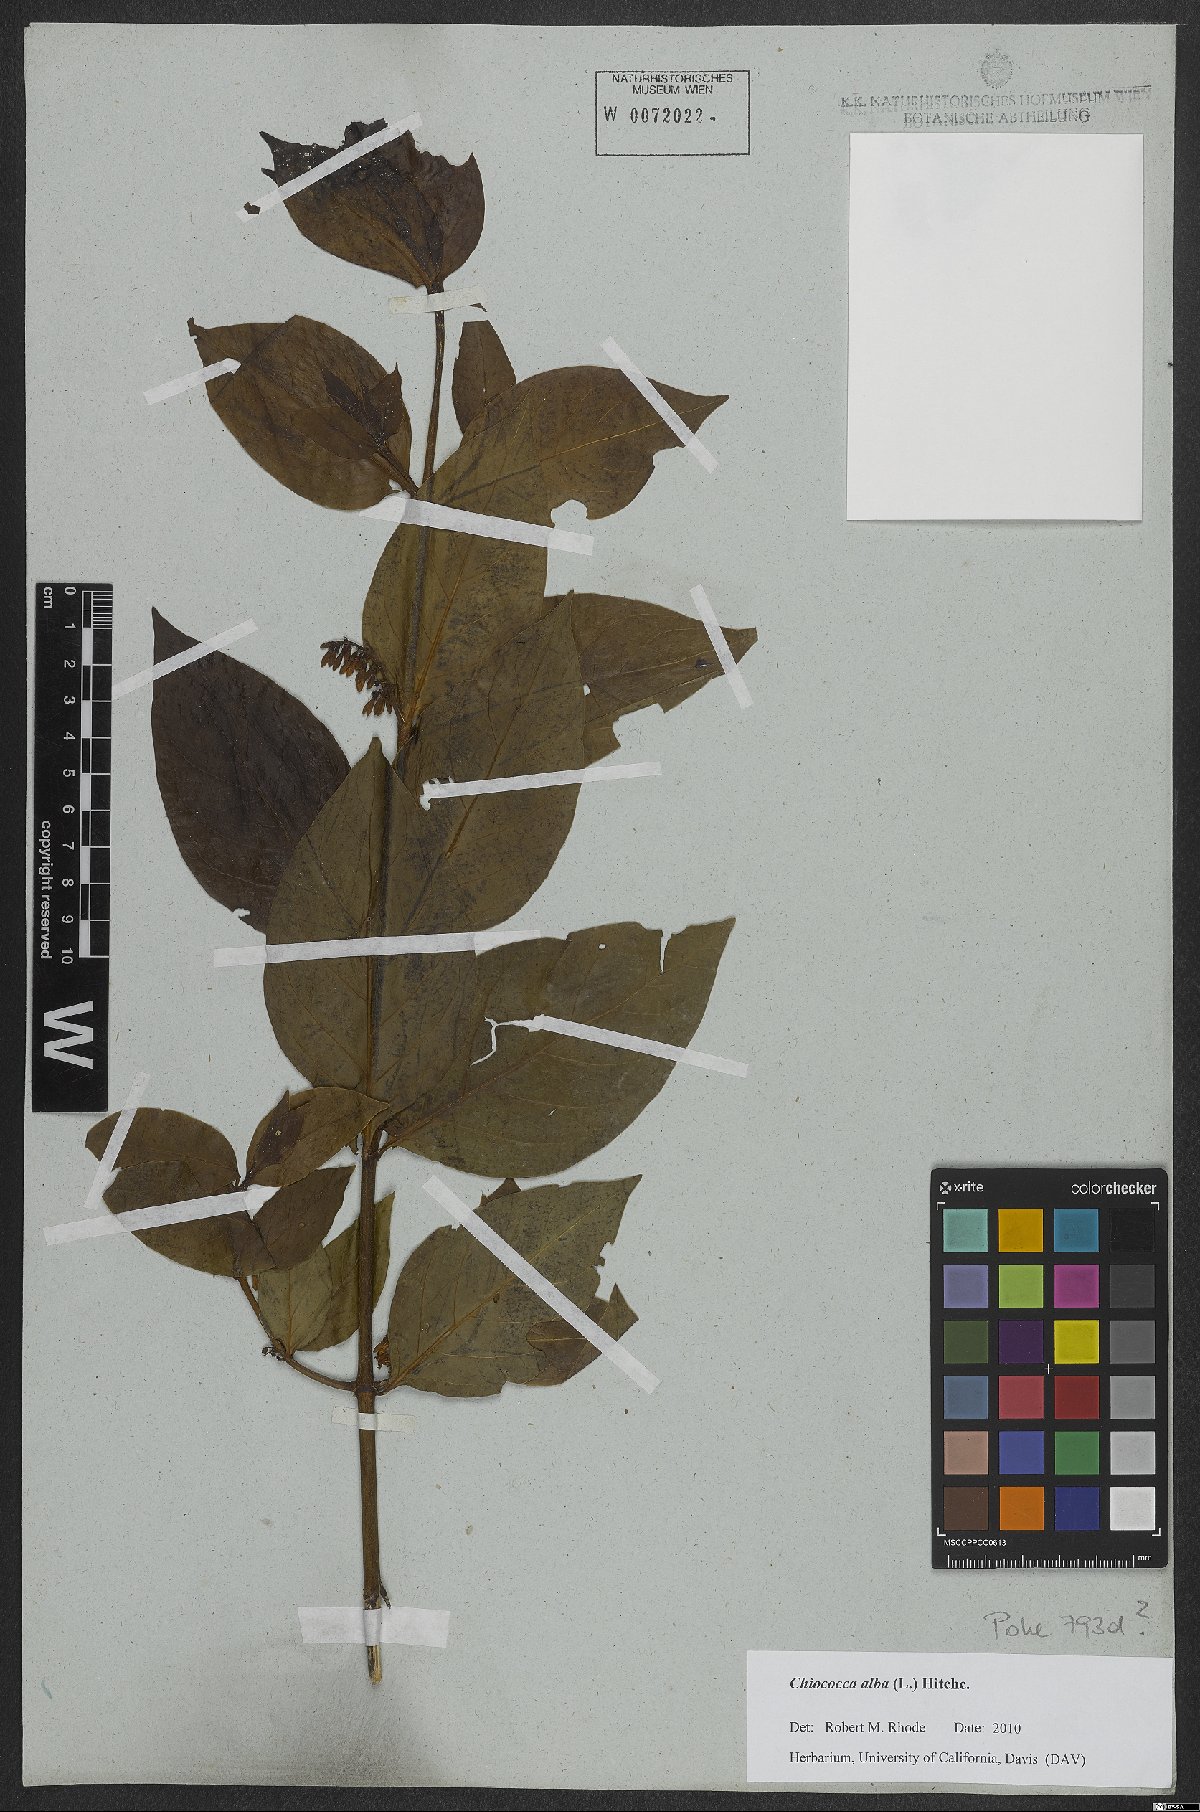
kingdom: Plantae
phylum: Tracheophyta
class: Magnoliopsida
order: Gentianales
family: Rubiaceae
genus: Chiococca
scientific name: Chiococca alba
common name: Snowberry
